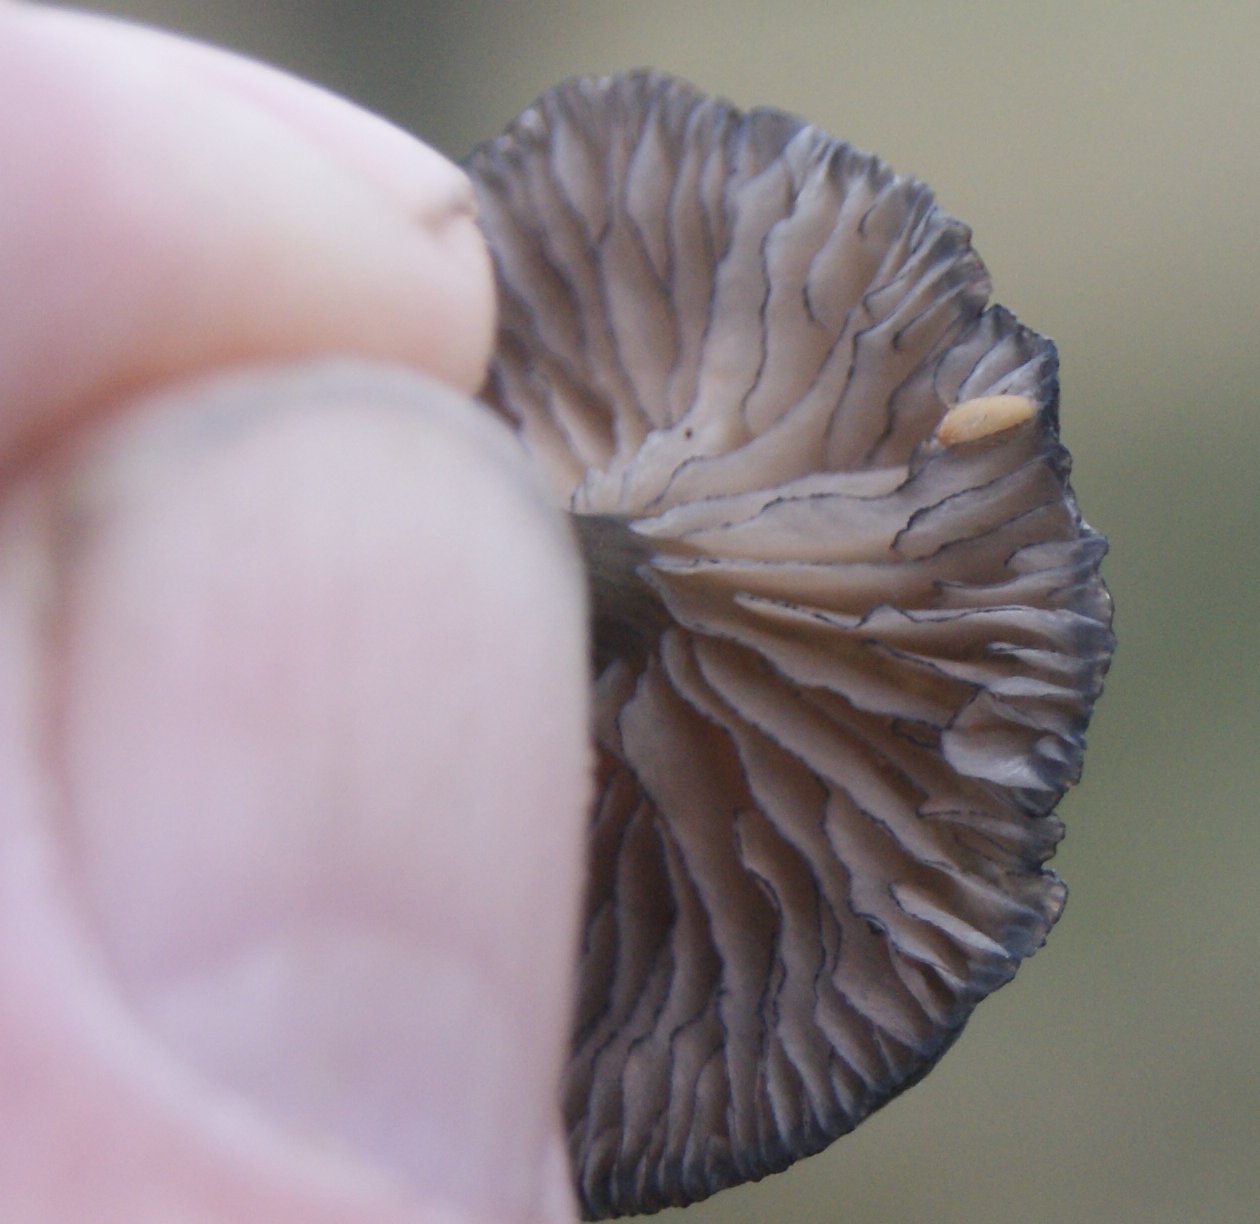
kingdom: Fungi
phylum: Basidiomycota
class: Agaricomycetes
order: Agaricales
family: Entolomataceae
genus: Entoloma
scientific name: Entoloma
